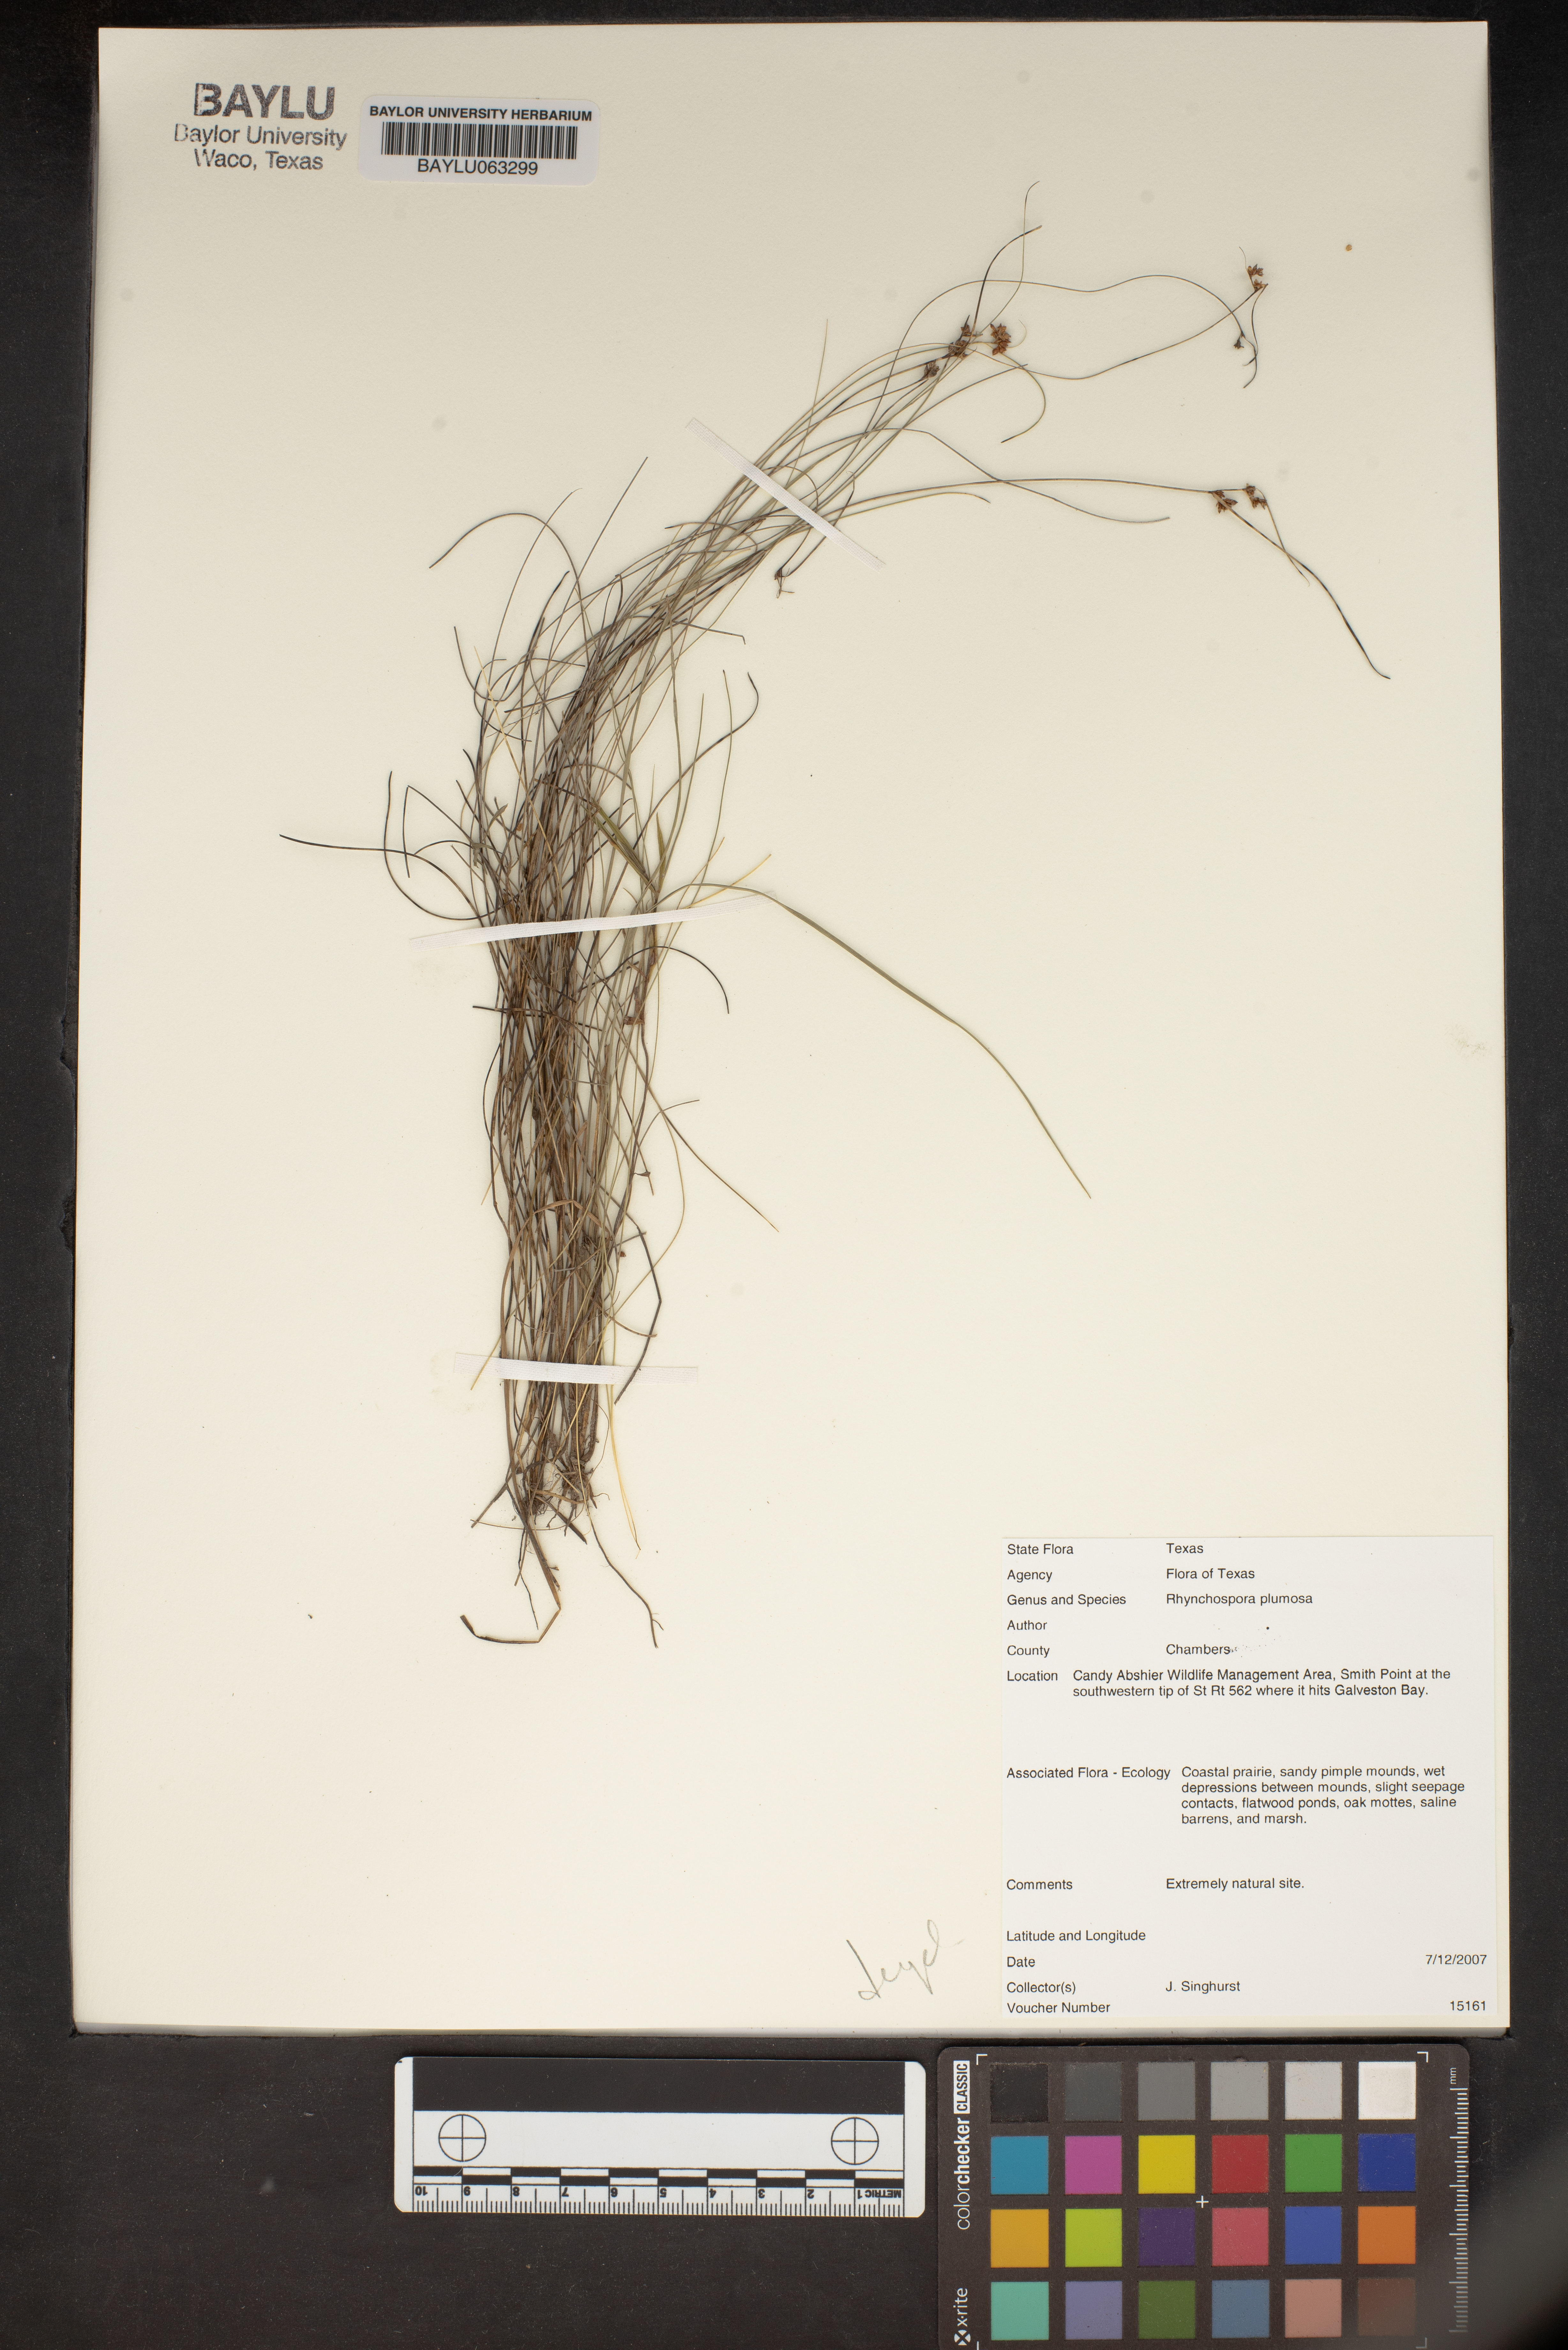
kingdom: Plantae
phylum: Tracheophyta
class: Liliopsida
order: Poales
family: Cyperaceae
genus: Rhynchospora
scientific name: Rhynchospora plumosa
